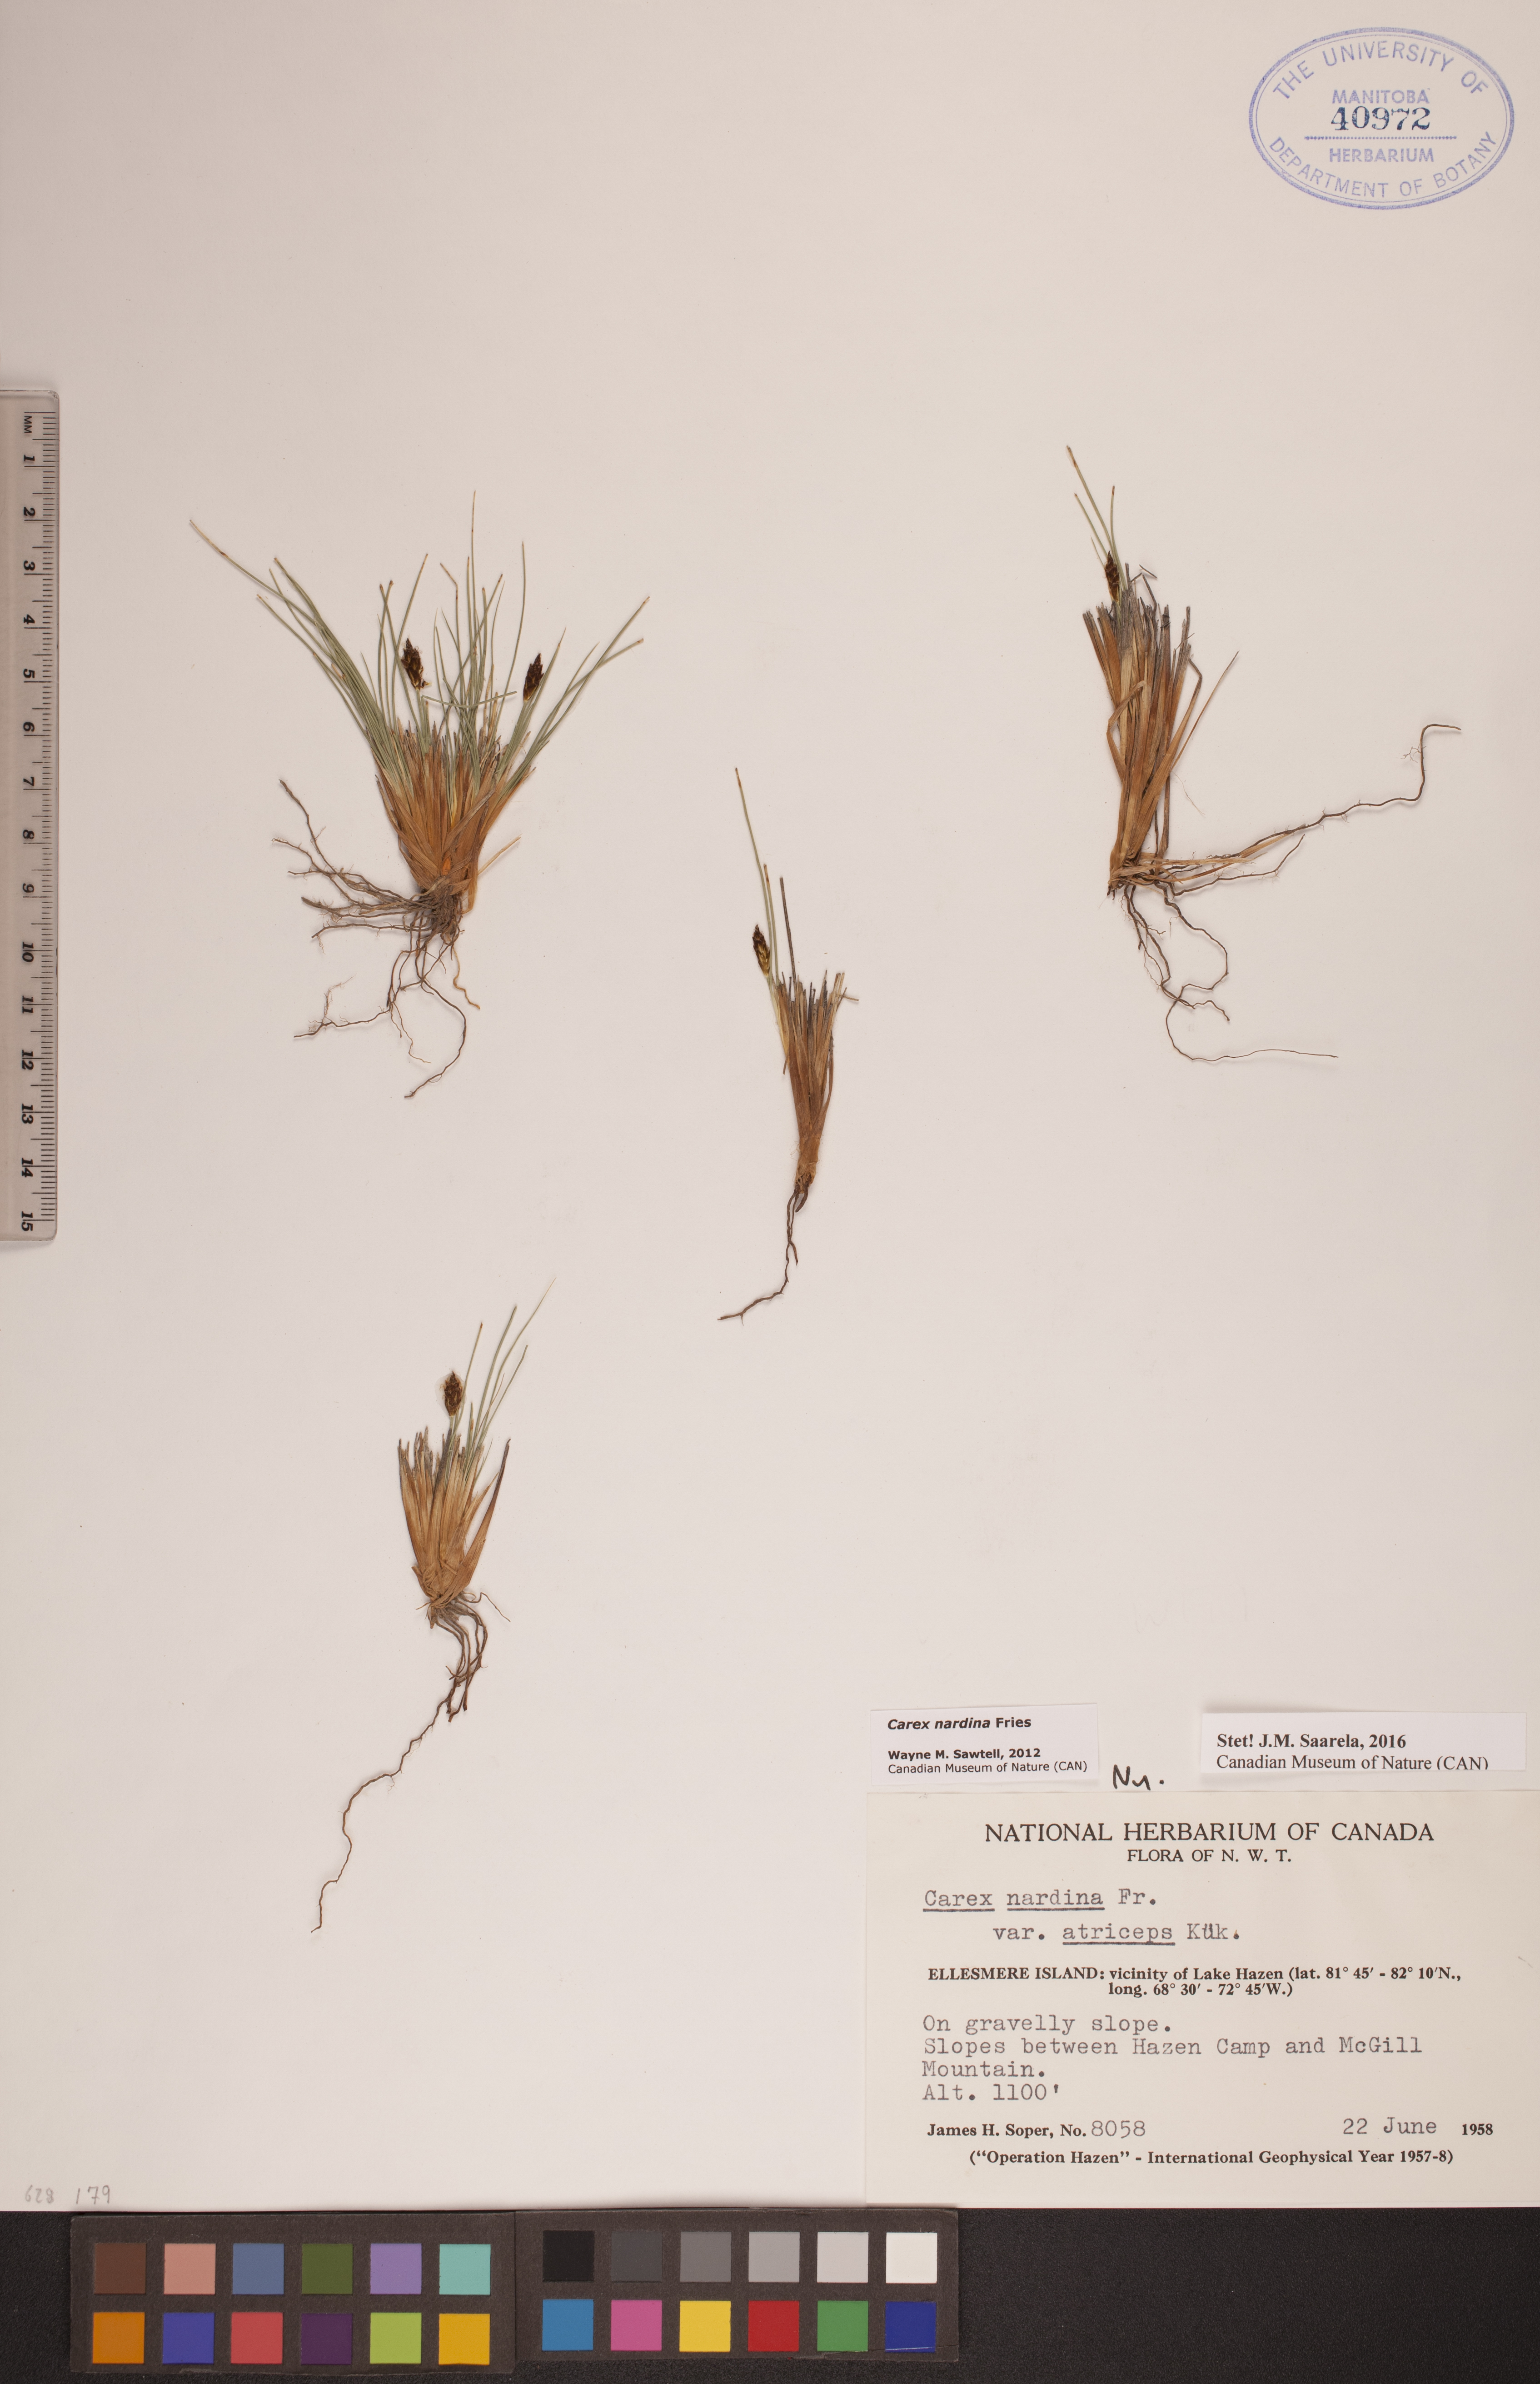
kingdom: Plantae
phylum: Tracheophyta
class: Liliopsida
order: Poales
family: Cyperaceae
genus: Carex
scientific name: Carex nardina
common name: Nard sedge
